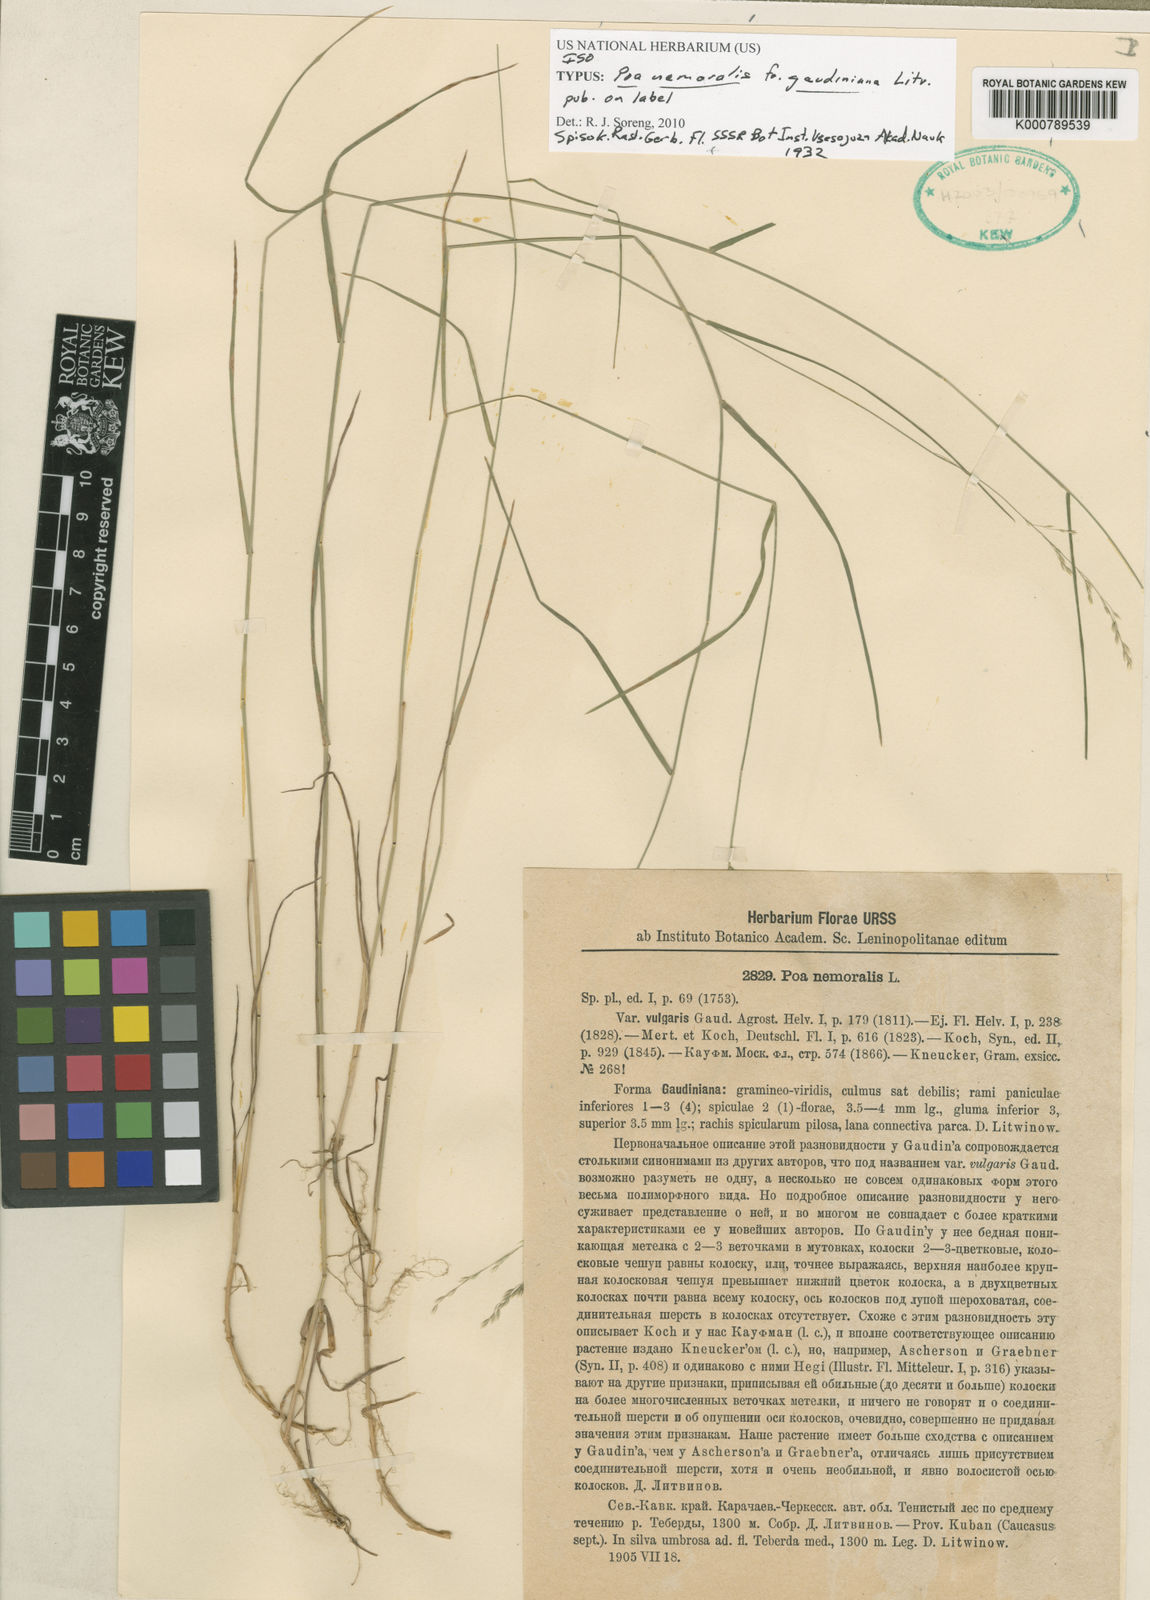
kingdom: Plantae
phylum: Tracheophyta
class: Liliopsida
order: Poales
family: Poaceae
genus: Poa
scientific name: Poa nemoralis
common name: Wood bluegrass
